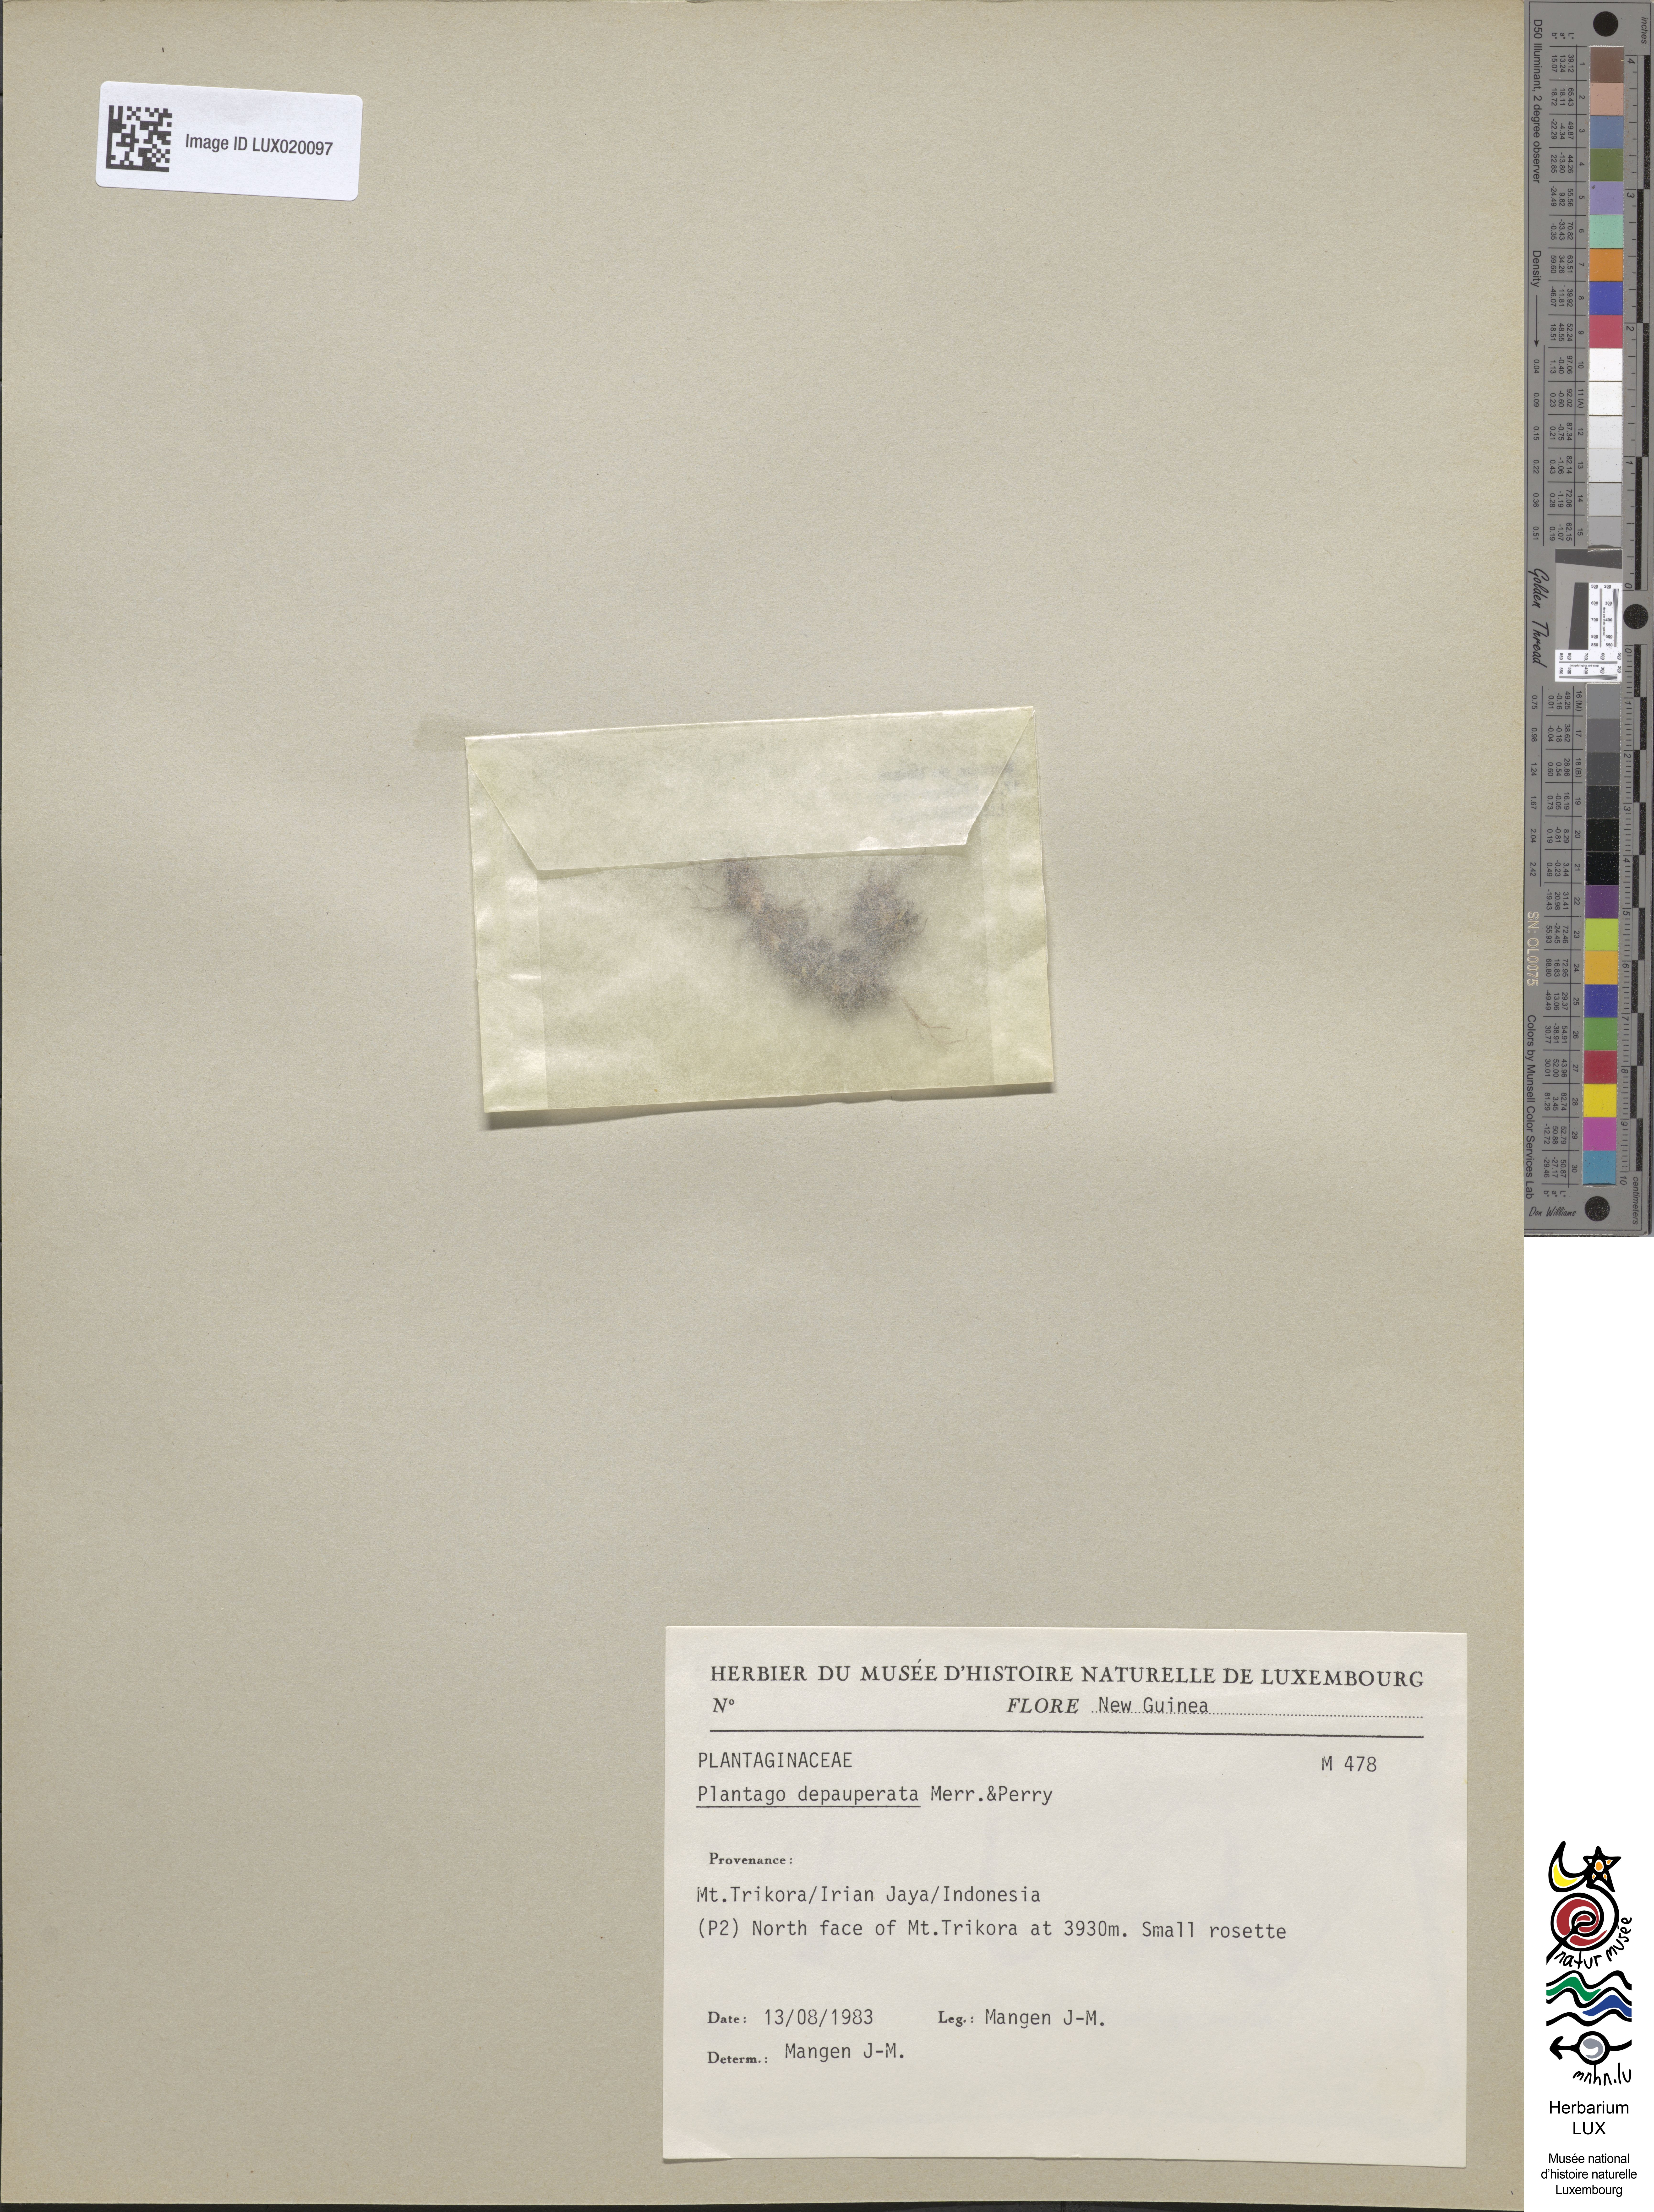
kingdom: Plantae
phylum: Tracheophyta
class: Magnoliopsida
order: Lamiales
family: Plantaginaceae
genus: Plantago
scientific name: Plantago depauperata
